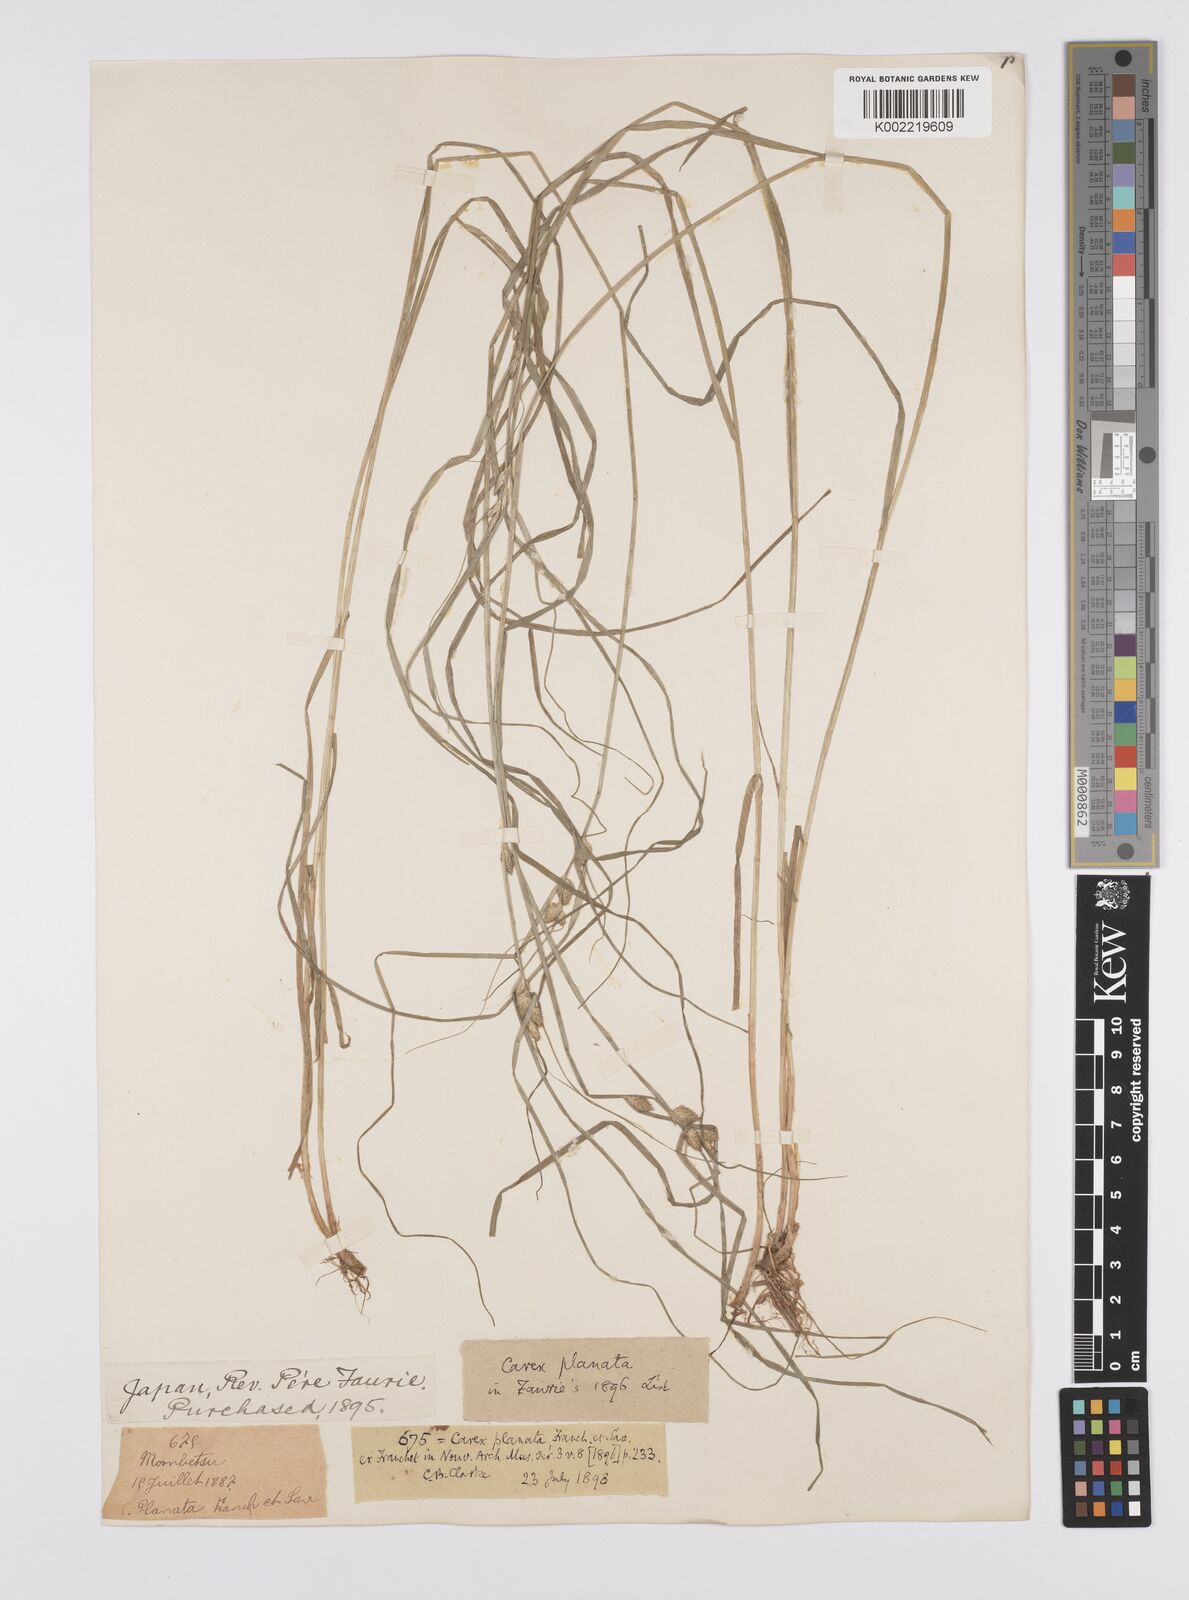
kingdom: Plantae
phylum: Tracheophyta
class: Liliopsida
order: Poales
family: Cyperaceae
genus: Carex
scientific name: Carex planata
